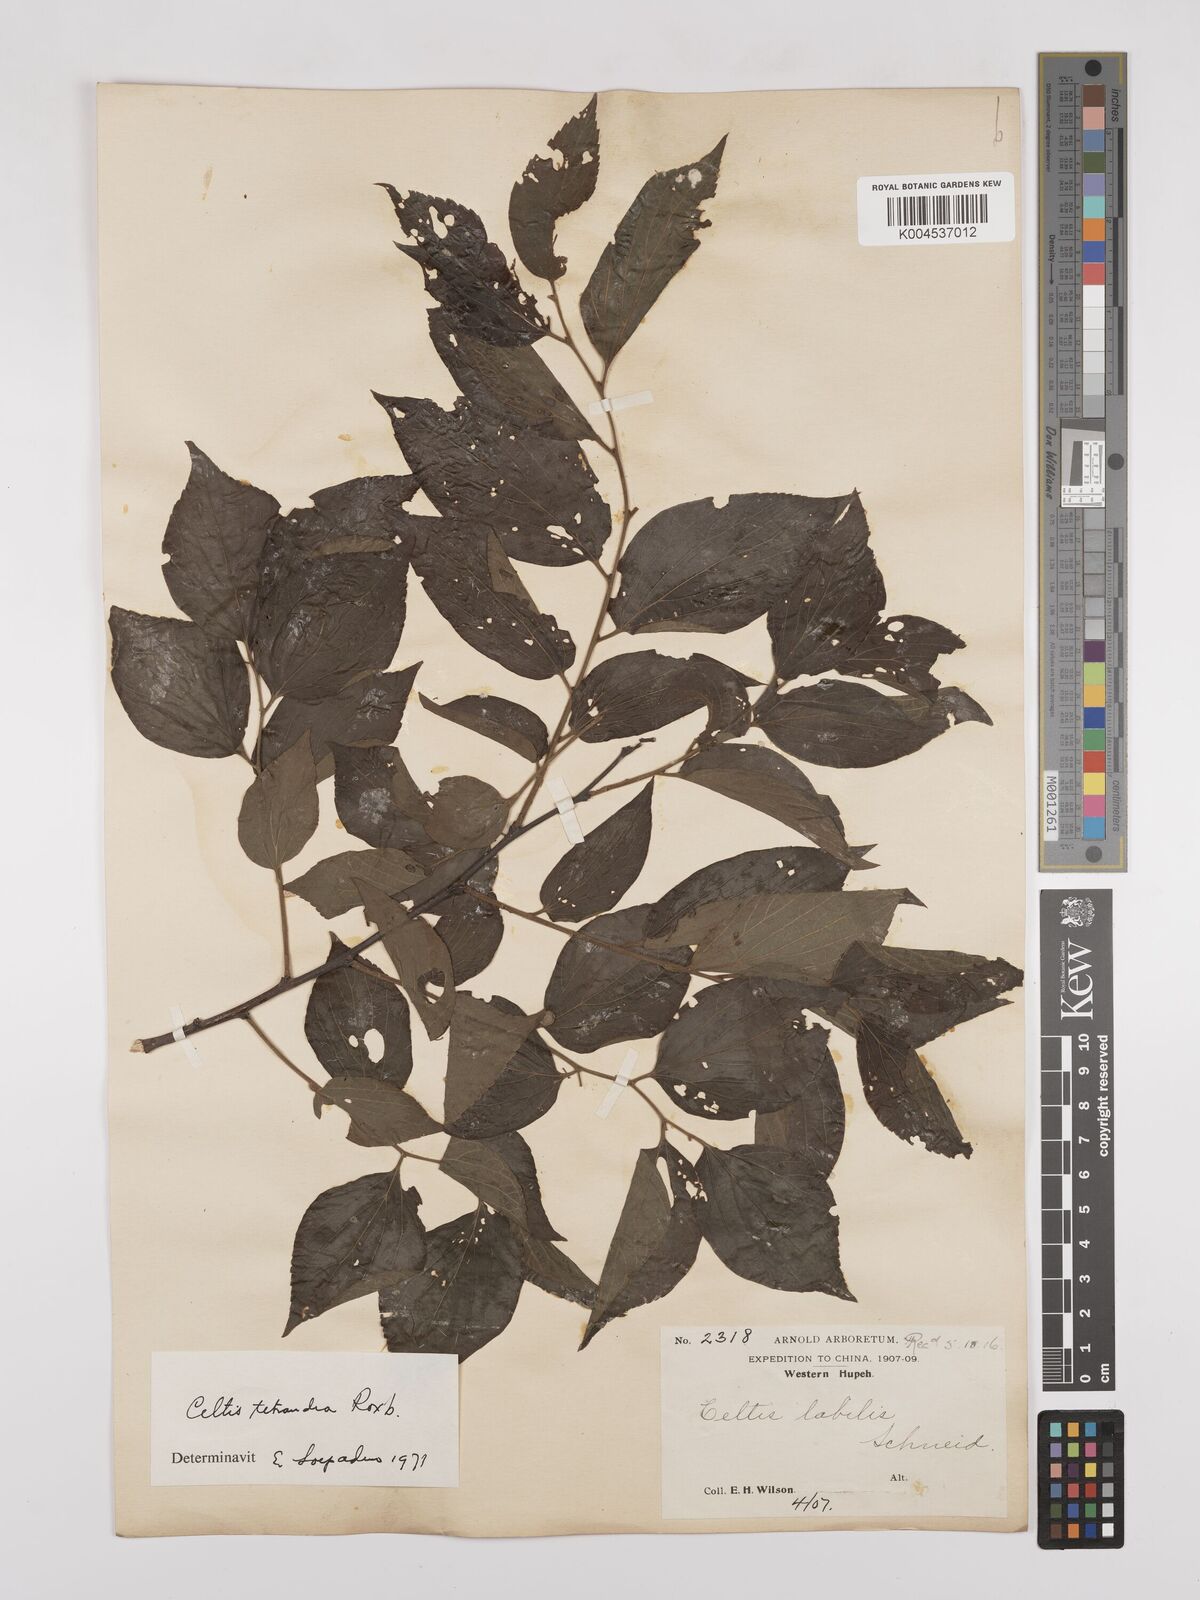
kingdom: Plantae
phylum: Tracheophyta
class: Magnoliopsida
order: Rosales
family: Cannabaceae
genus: Celtis
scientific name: Celtis tetrandra
